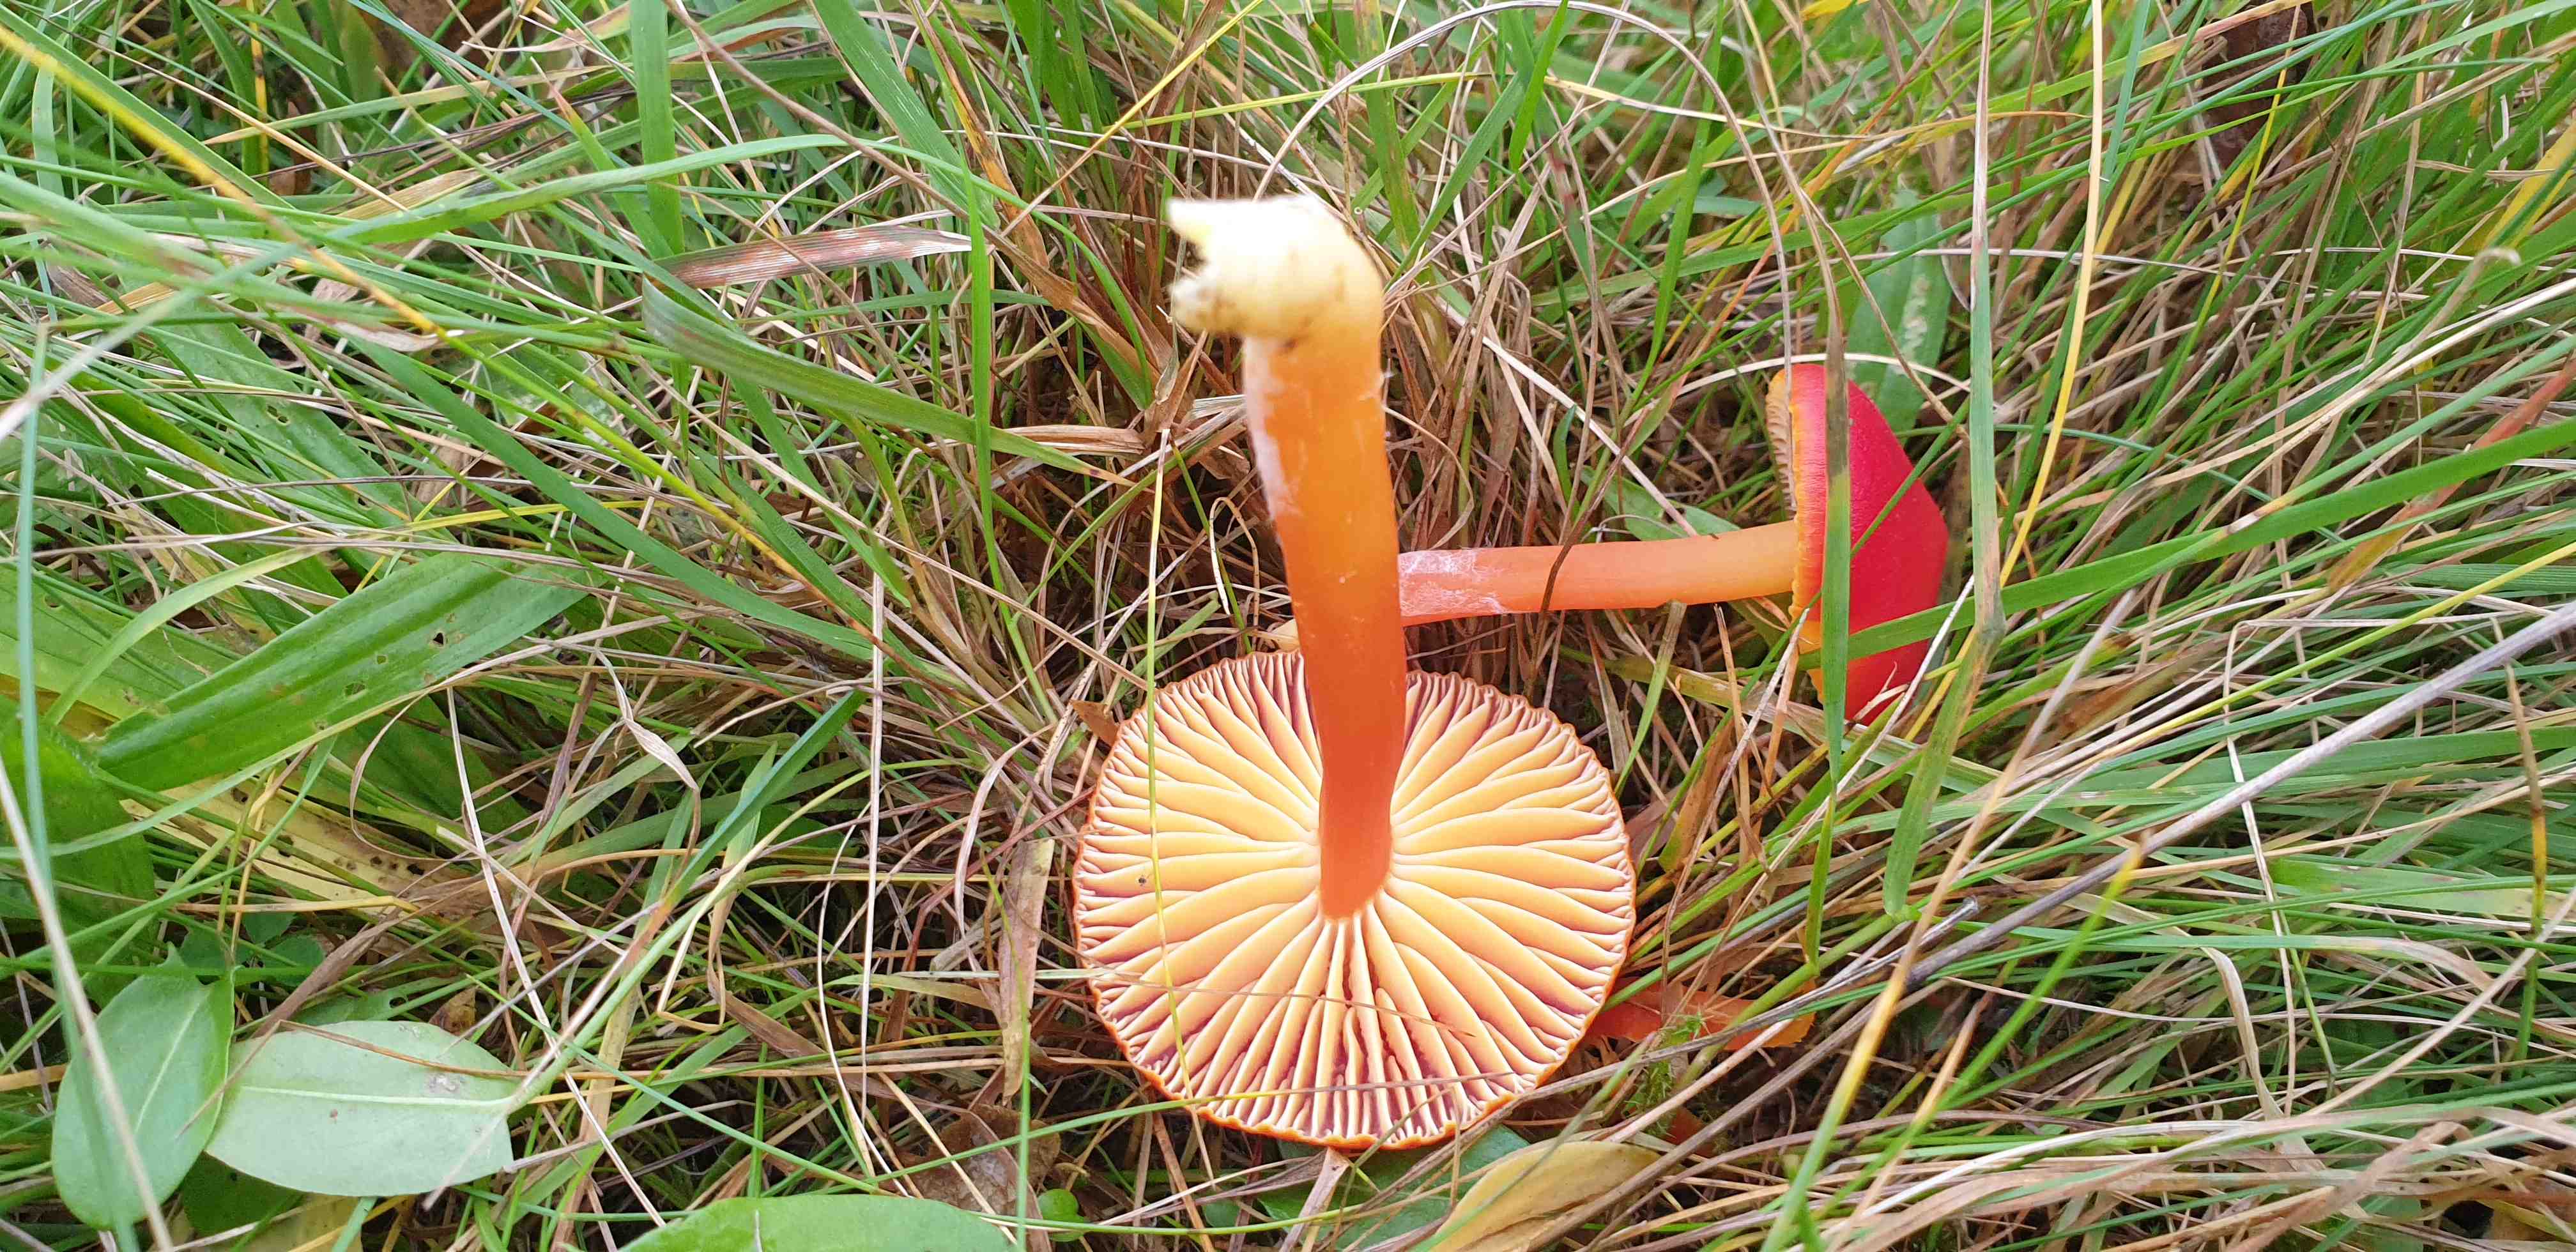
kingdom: Fungi
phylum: Basidiomycota
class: Agaricomycetes
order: Agaricales
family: Hygrophoraceae
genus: Hygrocybe
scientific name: Hygrocybe coccinea
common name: cinnober-vokshat
